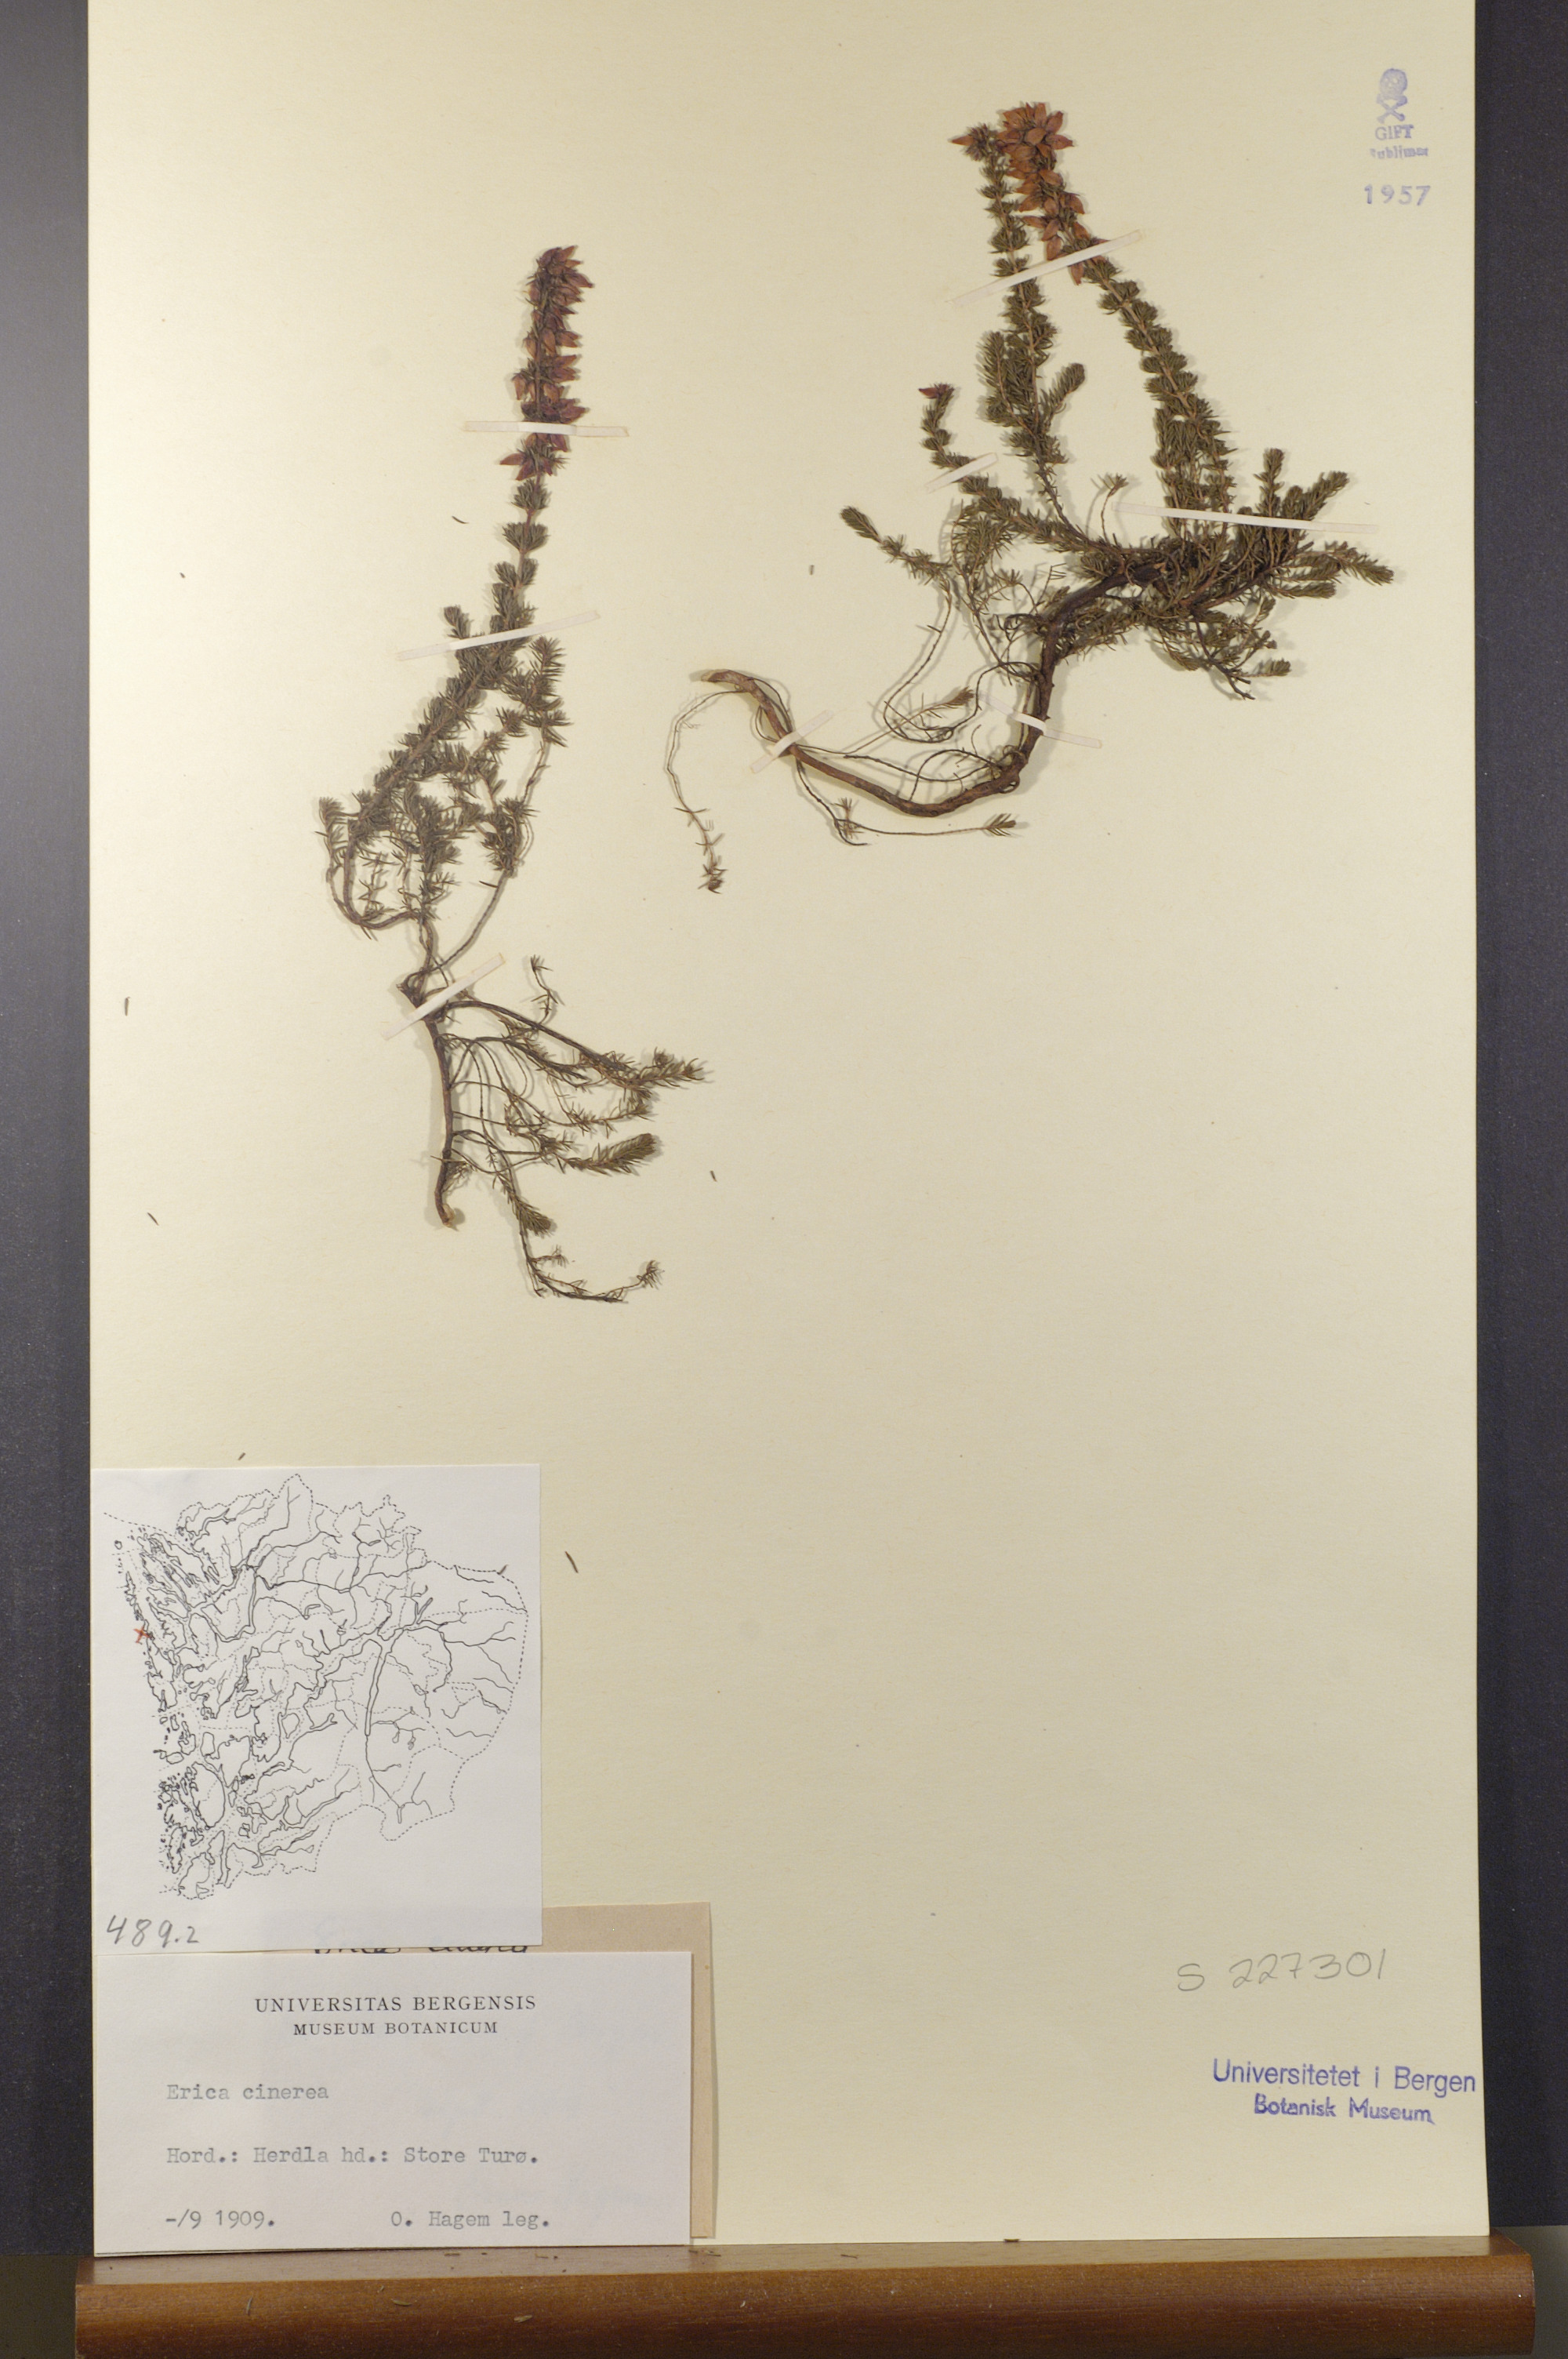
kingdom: Plantae
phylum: Tracheophyta
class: Magnoliopsida
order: Ericales
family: Ericaceae
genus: Erica
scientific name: Erica cinerea
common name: Bell heather
